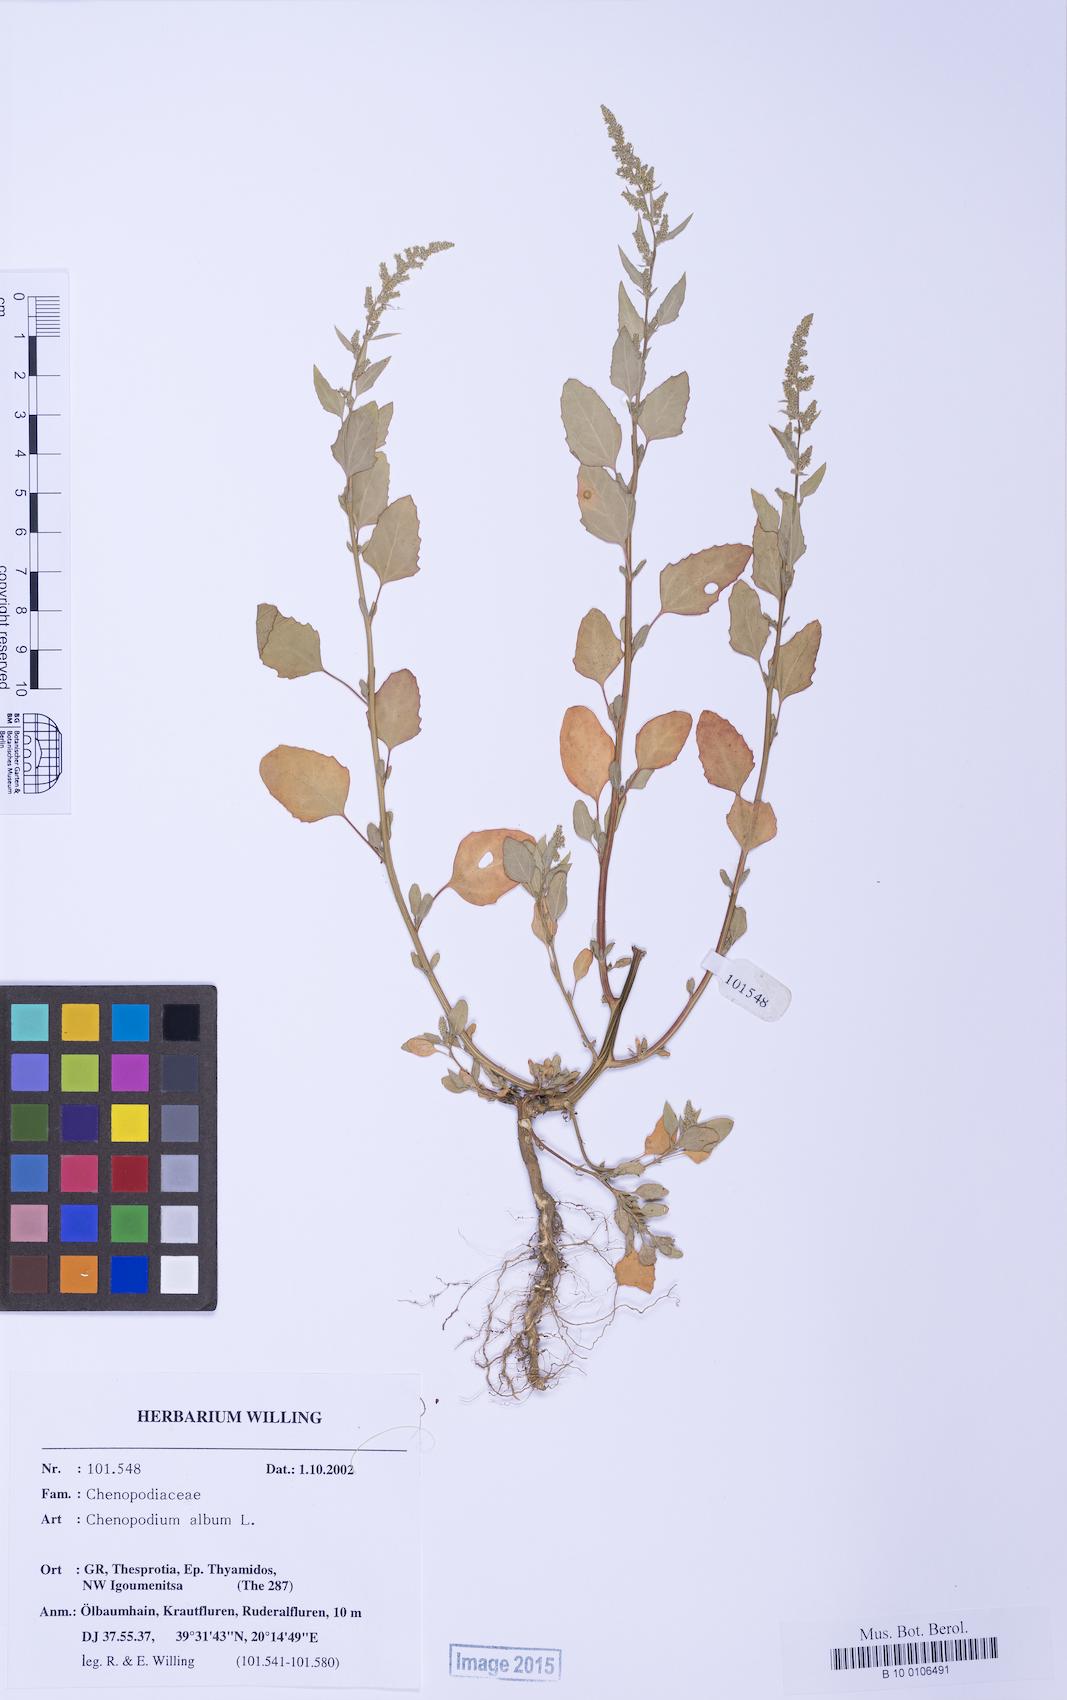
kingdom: Plantae
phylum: Tracheophyta
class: Magnoliopsida
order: Caryophyllales
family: Amaranthaceae
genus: Chenopodium
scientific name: Chenopodium betaceum
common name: Striped goosefoot
